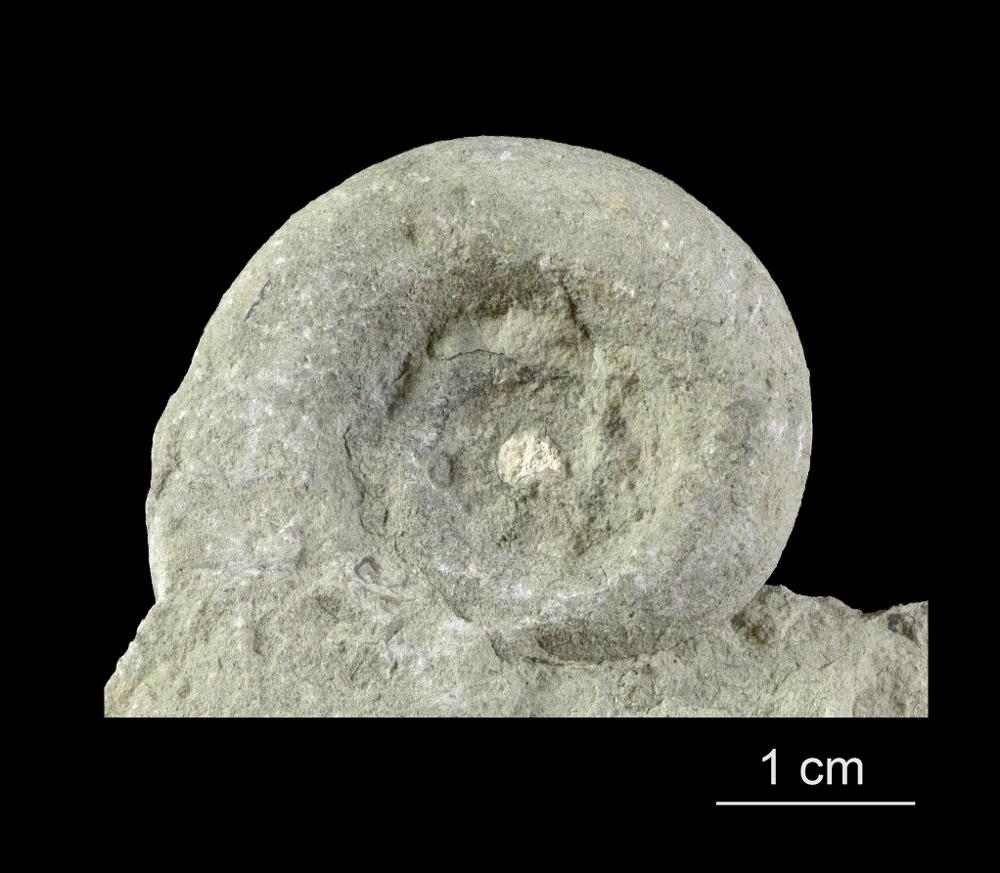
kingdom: Animalia
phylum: Mollusca
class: Gastropoda
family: Lesueurillidae
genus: Mestoronema
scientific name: Mestoronema Euomphalus marginalis
